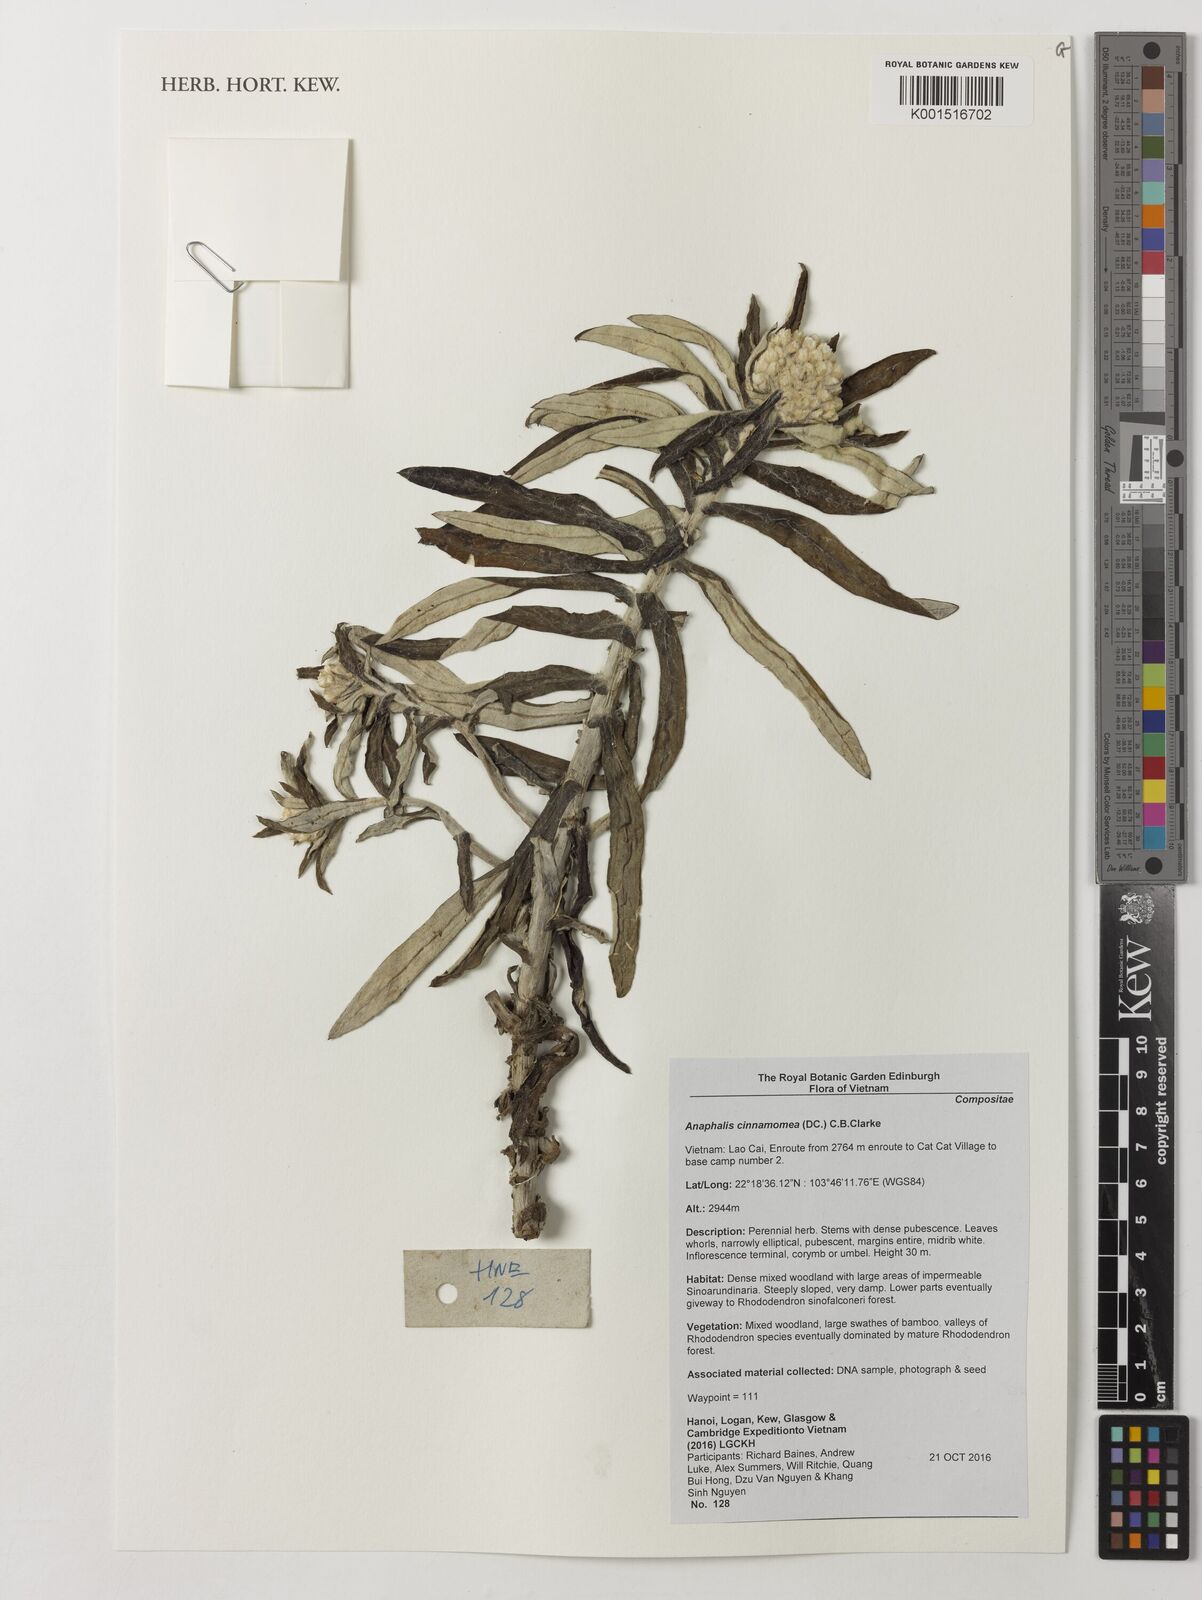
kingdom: Plantae
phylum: Tracheophyta
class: Magnoliopsida
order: Asterales
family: Asteraceae
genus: Anaphalis
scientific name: Anaphalis marcescens
